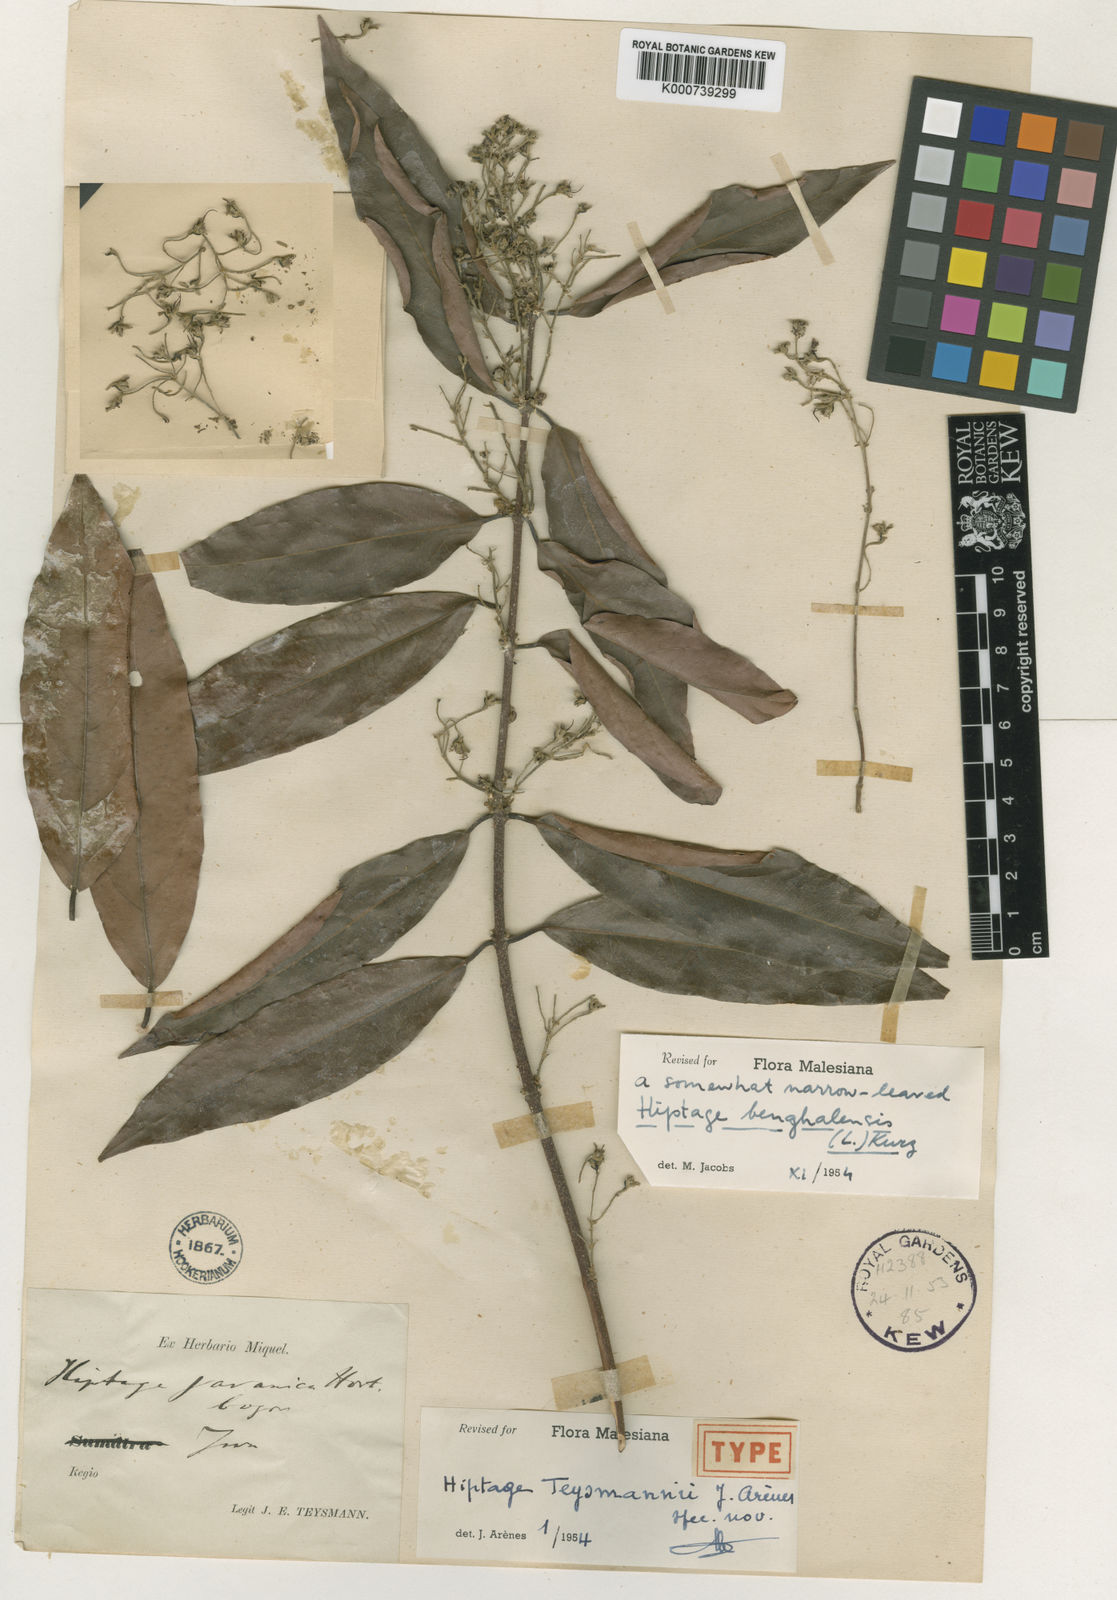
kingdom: Plantae
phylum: Tracheophyta
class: Magnoliopsida
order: Malpighiales
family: Malpighiaceae
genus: Hiptage
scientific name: Hiptage benghalensis
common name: Hiptage
